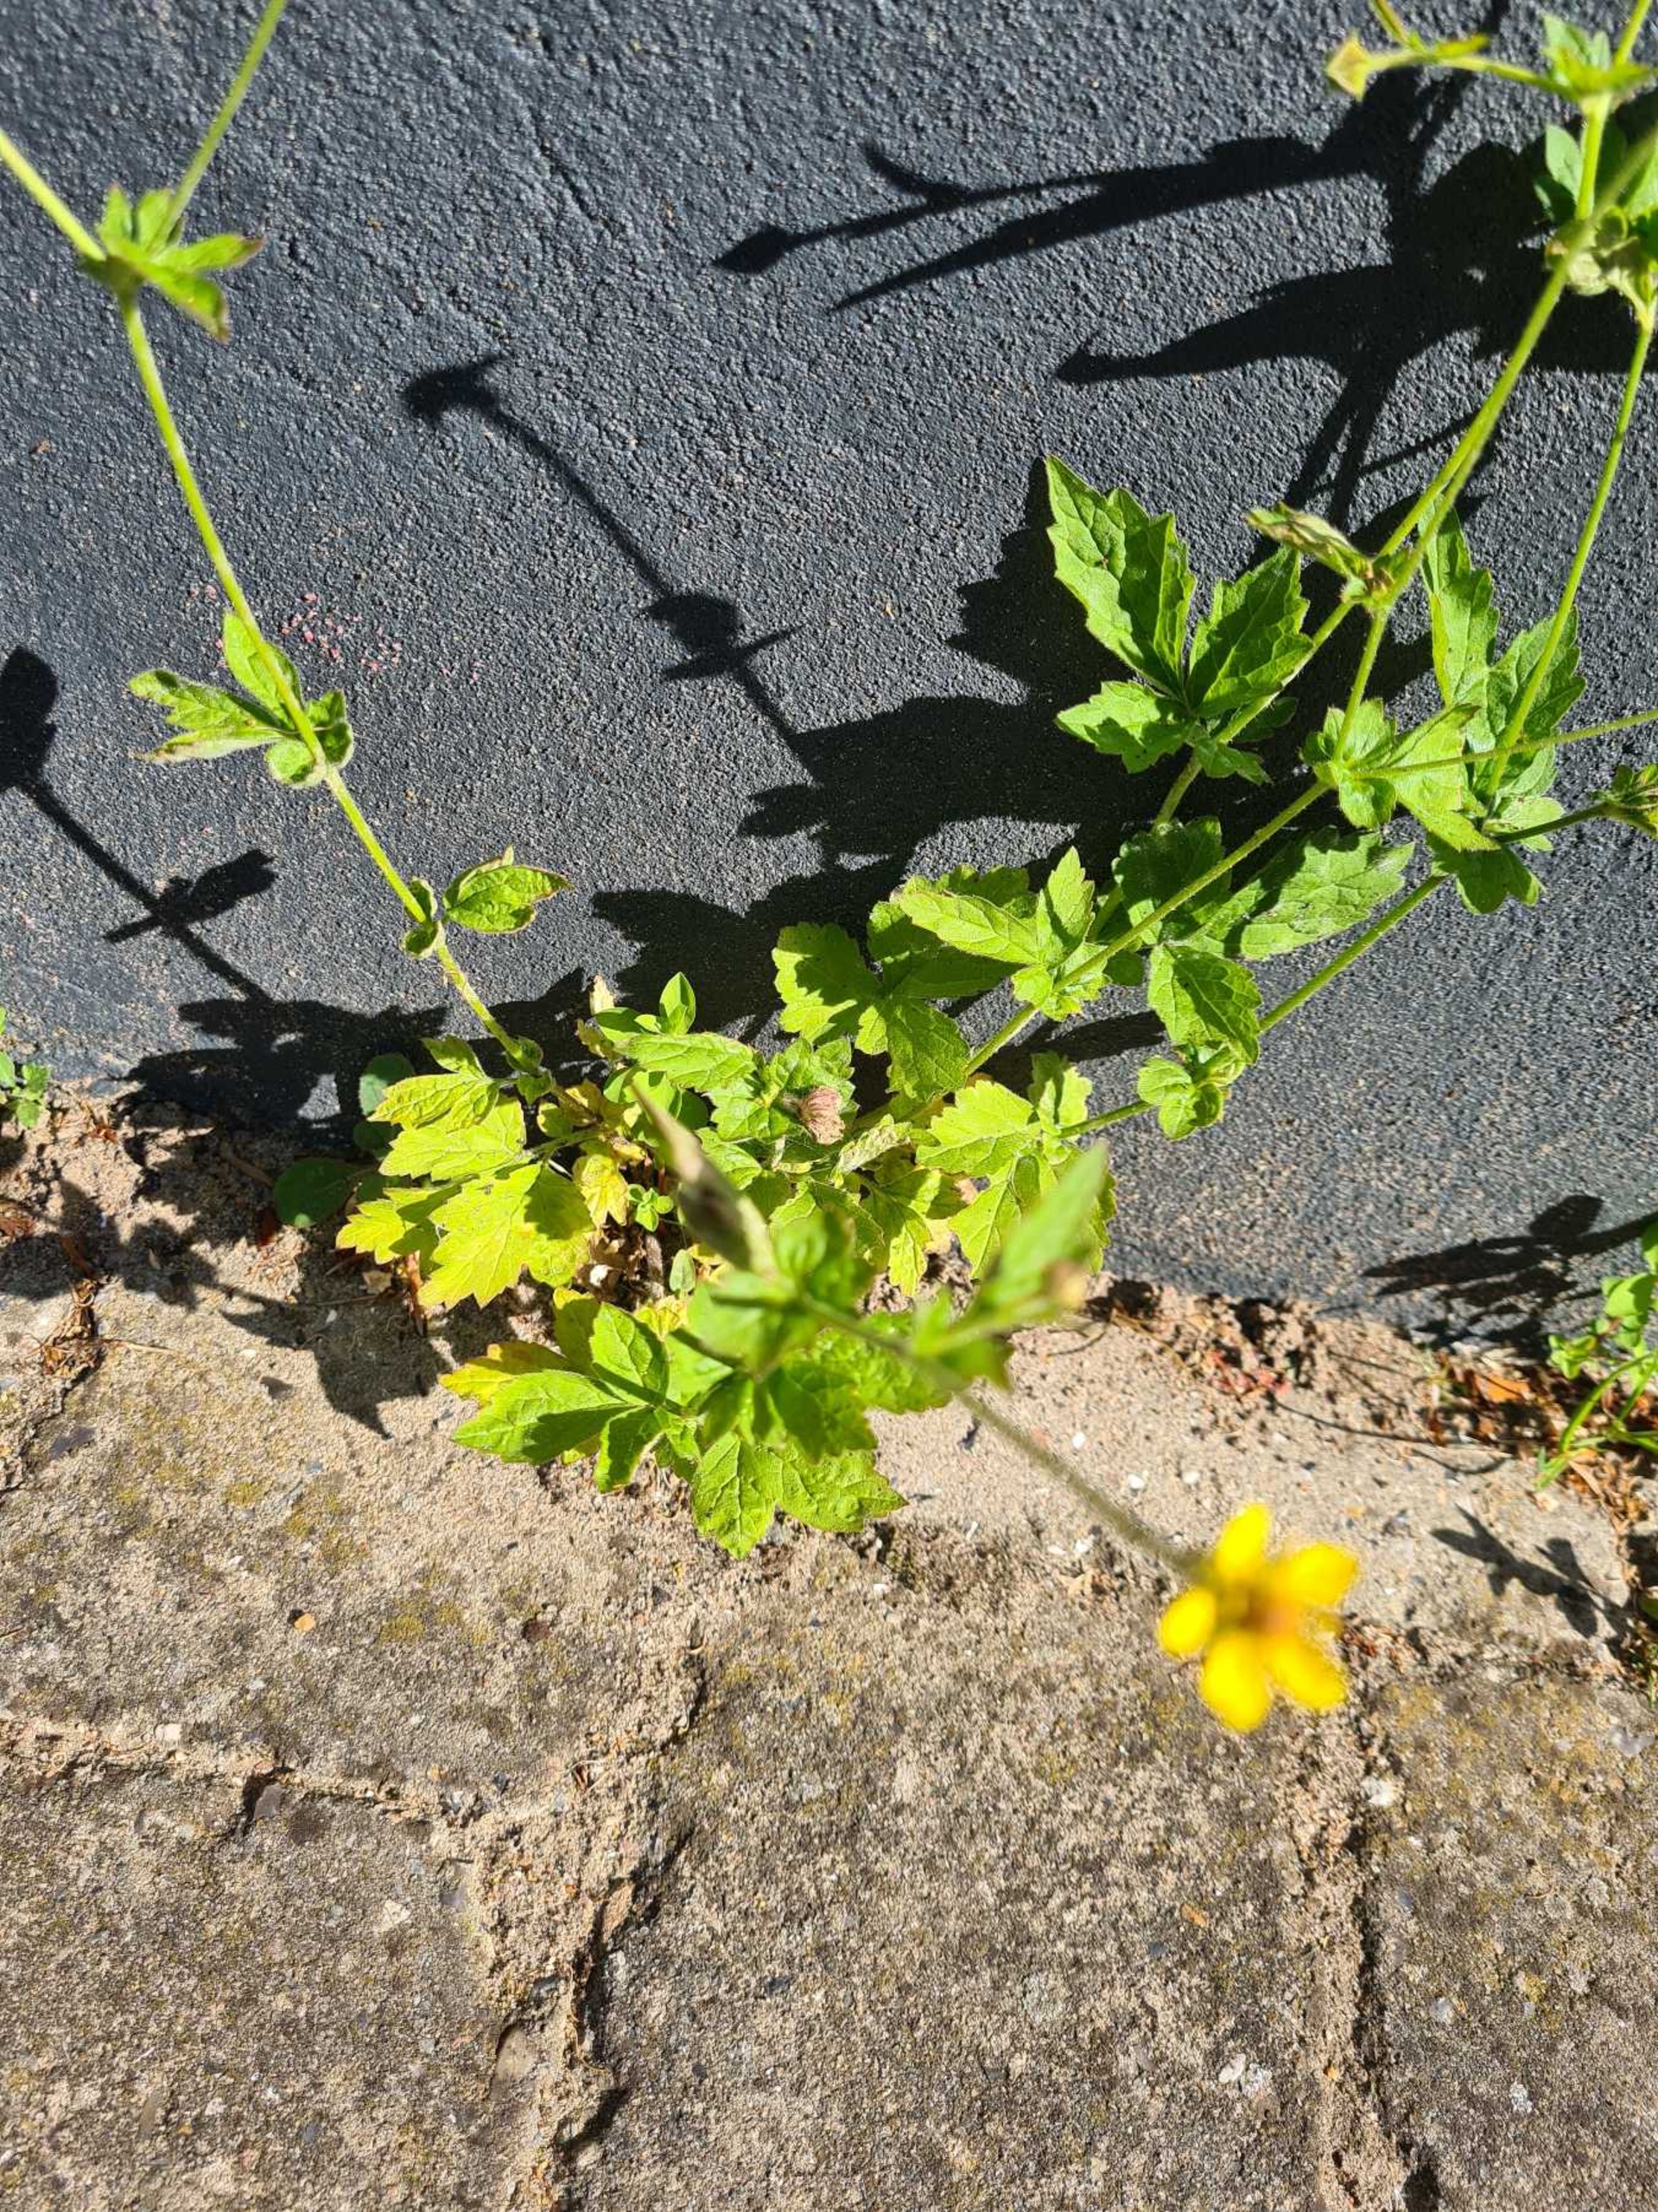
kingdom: Plantae
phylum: Tracheophyta
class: Magnoliopsida
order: Rosales
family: Rosaceae
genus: Geum
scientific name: Geum urbanum
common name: Feber-nellikerod
